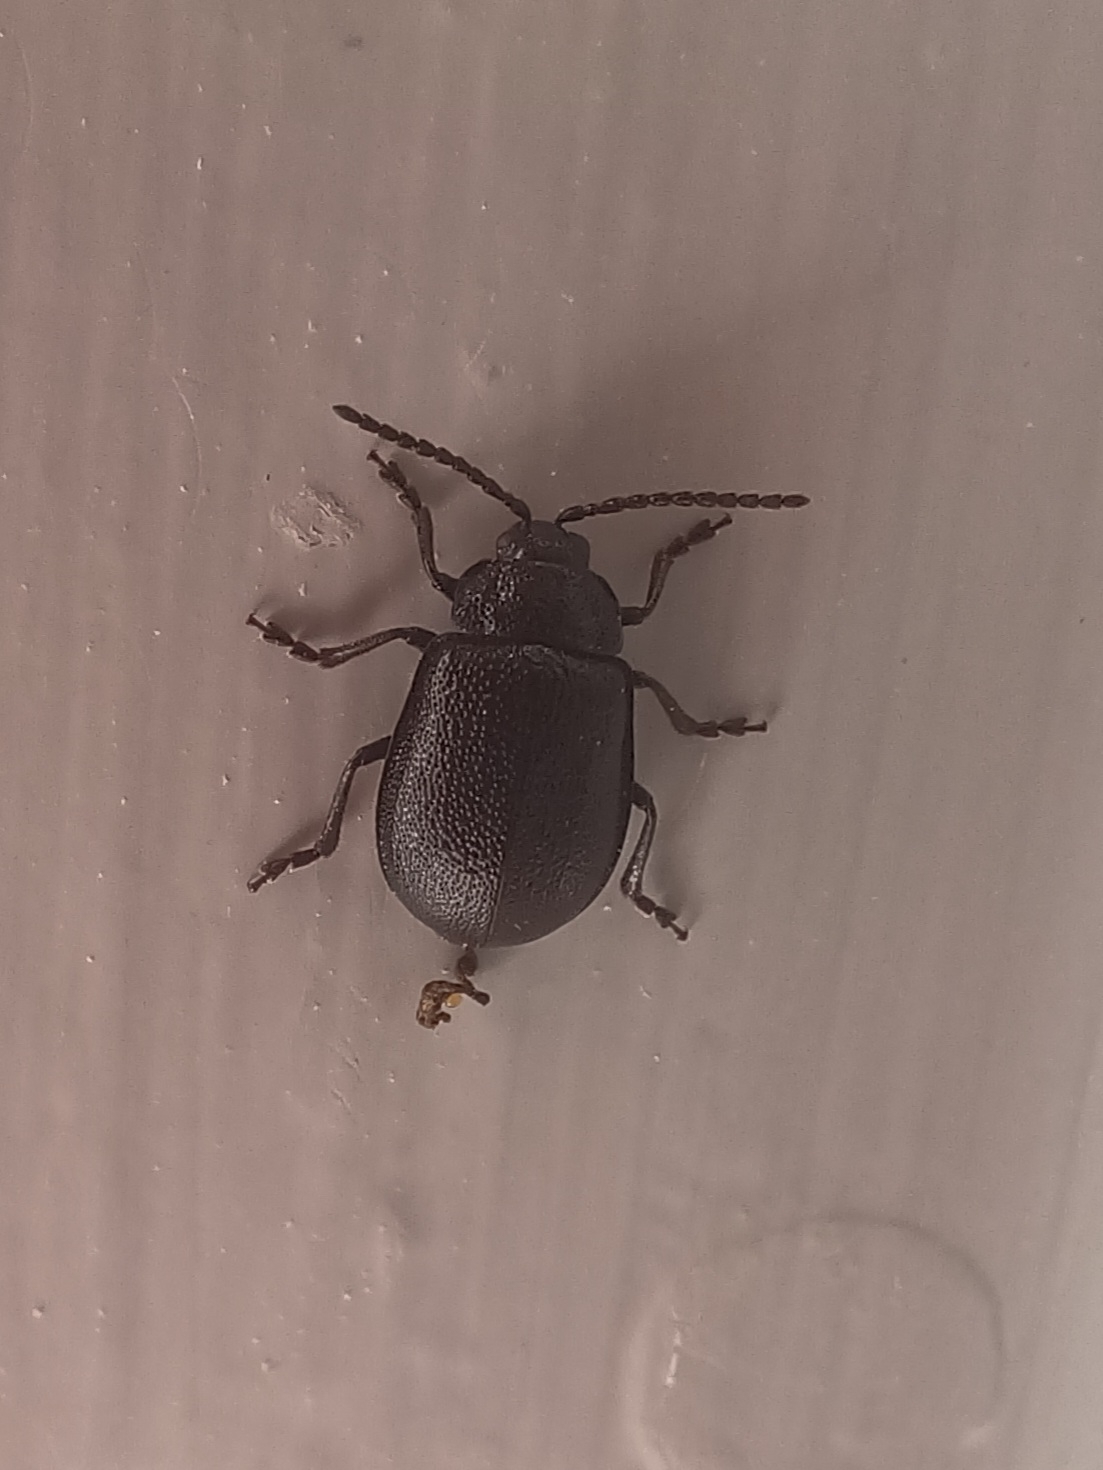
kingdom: Animalia
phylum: Arthropoda
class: Insecta
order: Coleoptera
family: Chrysomelidae
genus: Galeruca
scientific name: Galeruca tanaceti
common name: Rejnfanbladbille
